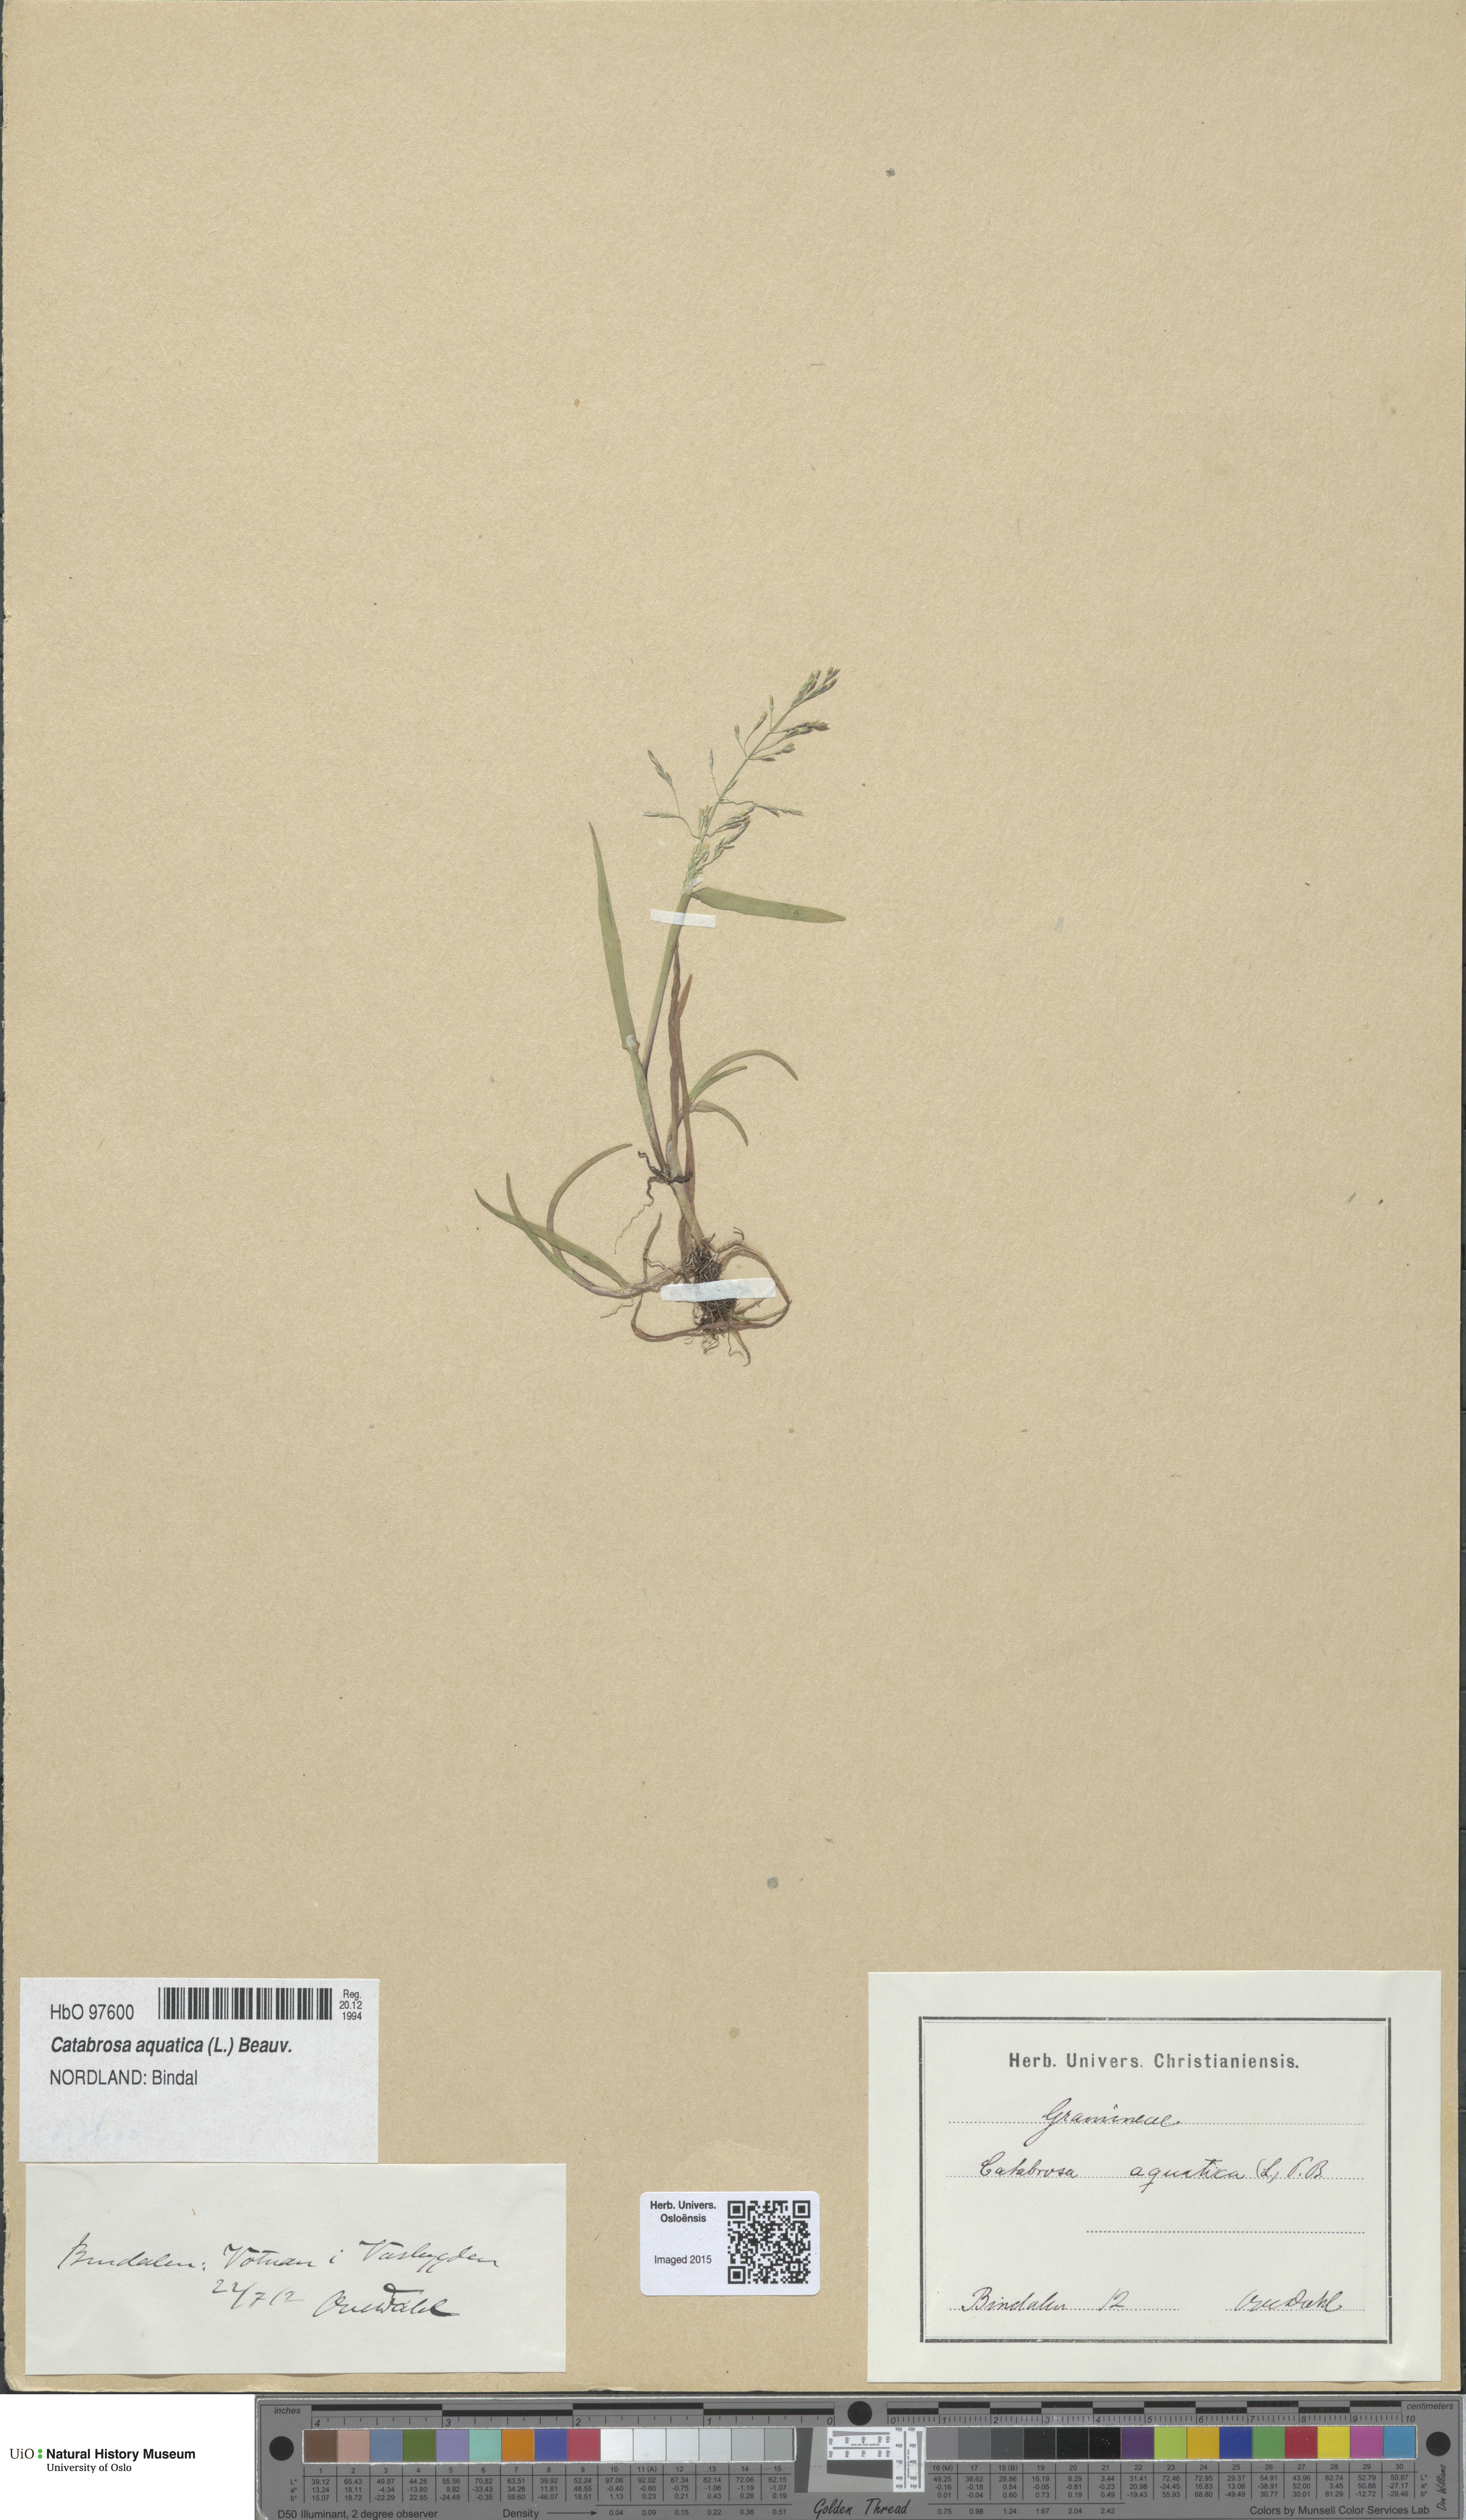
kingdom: Plantae
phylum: Tracheophyta
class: Liliopsida
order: Poales
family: Poaceae
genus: Catabrosa
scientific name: Catabrosa aquatica
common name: Whorl-grass
